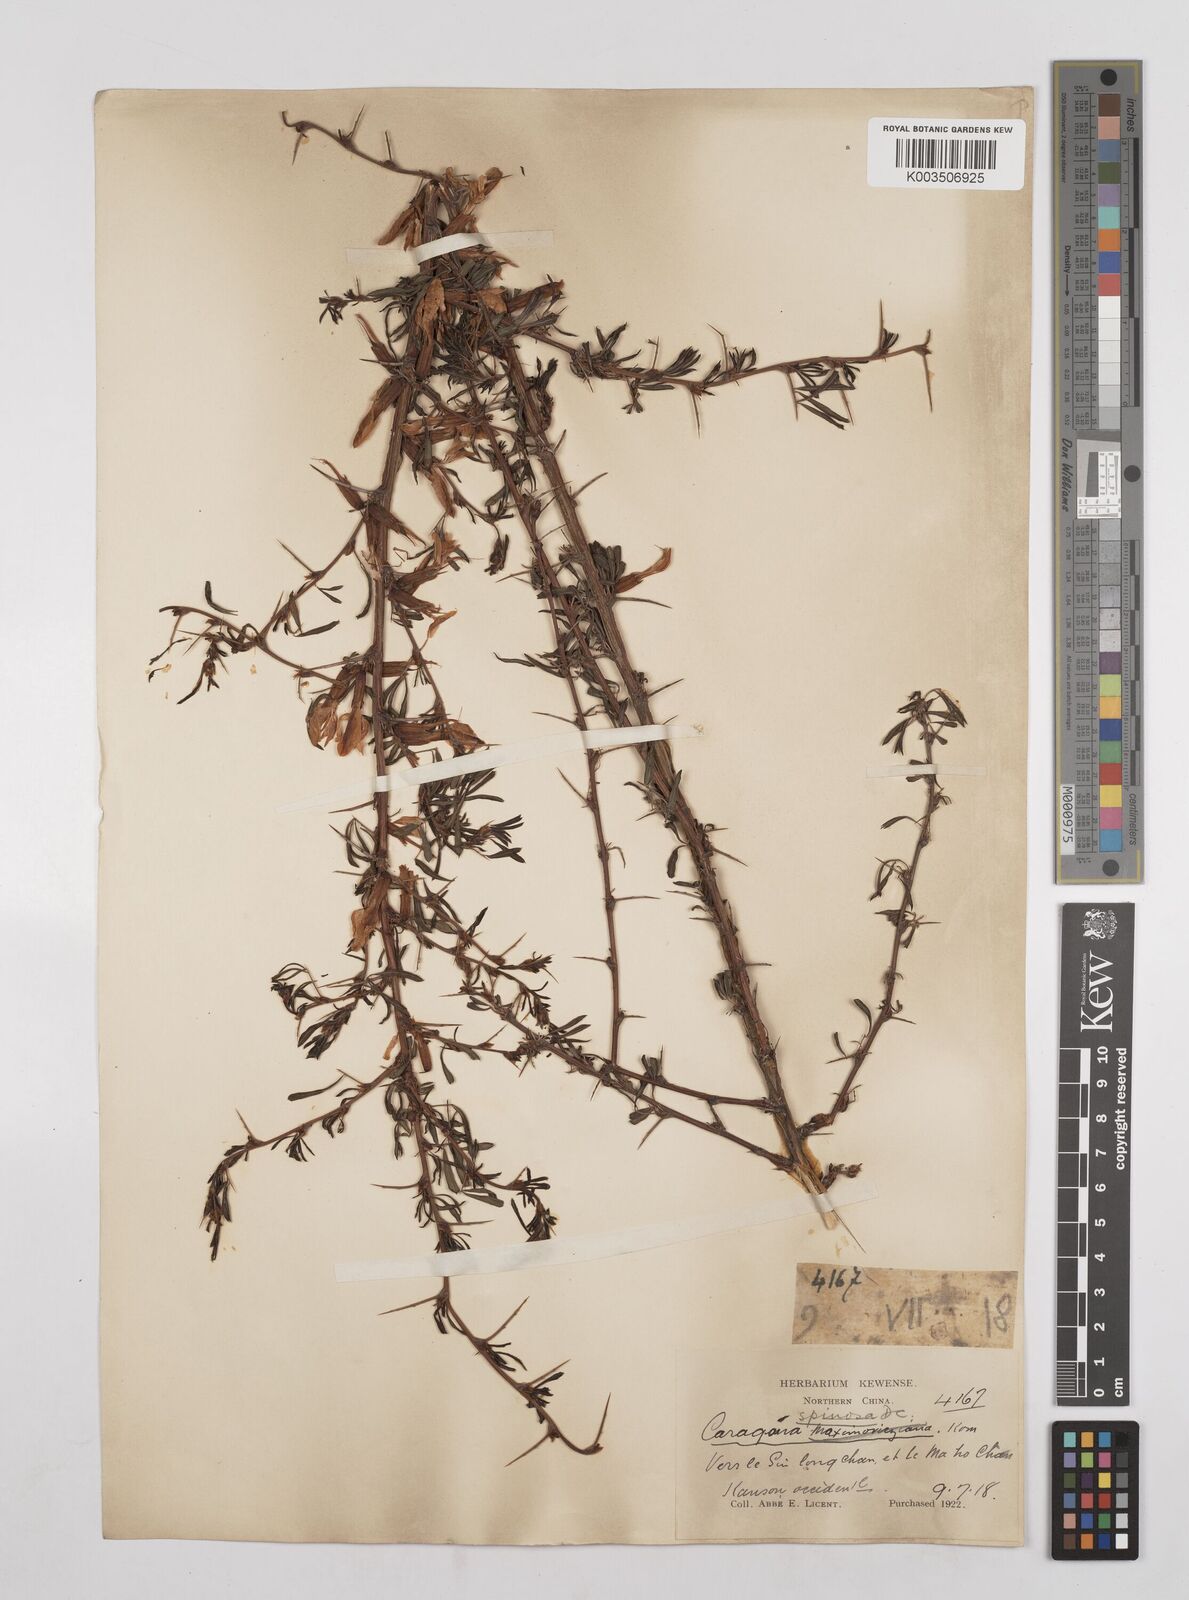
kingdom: Plantae
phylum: Tracheophyta
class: Magnoliopsida
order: Fabales
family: Fabaceae
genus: Caragana
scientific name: Caragana spinosa
